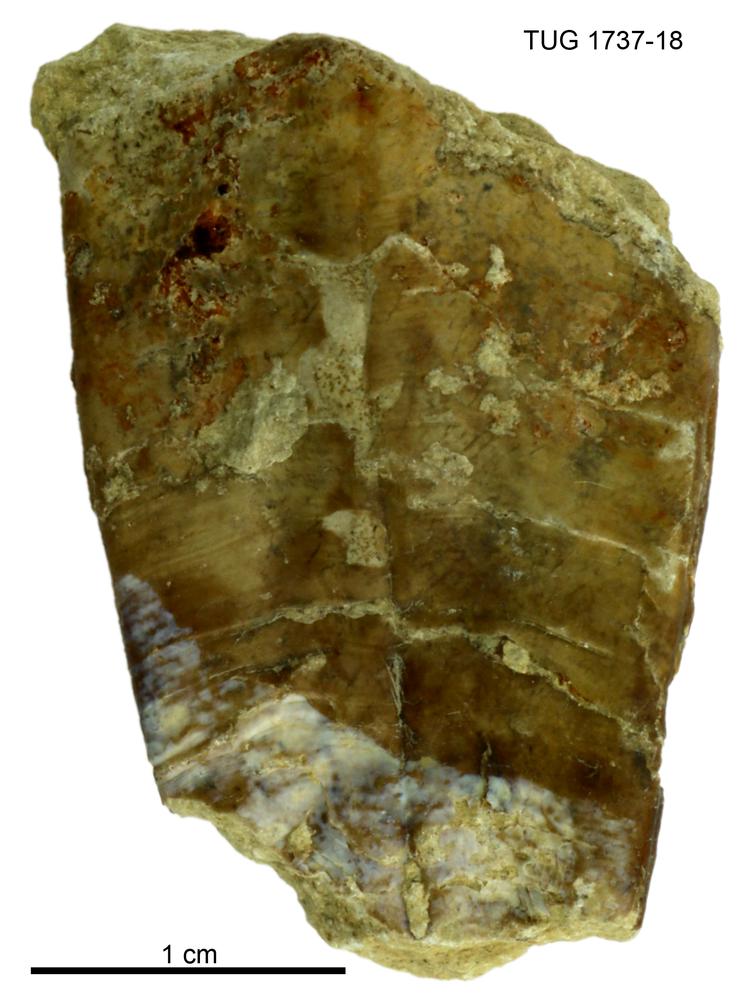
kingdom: Animalia
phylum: Cnidaria
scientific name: Cnidaria
